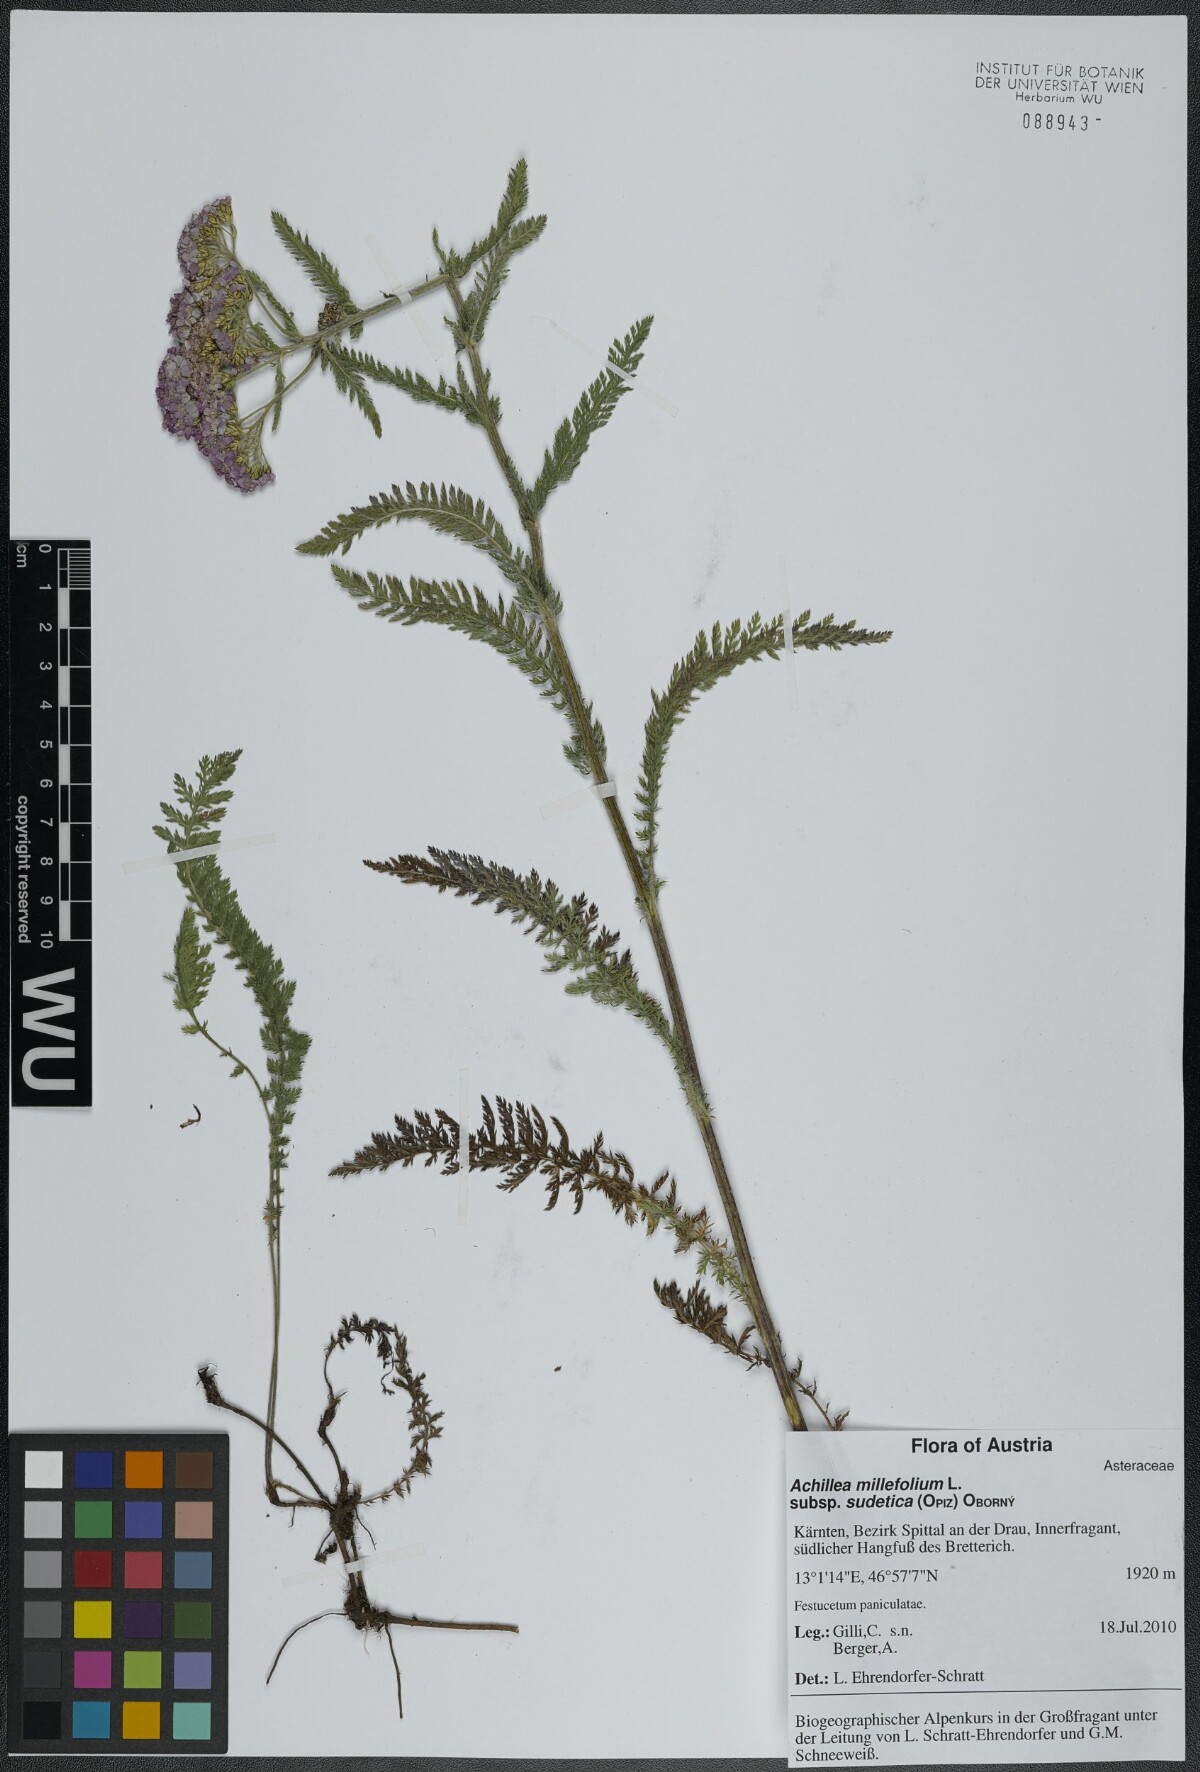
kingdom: Plantae
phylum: Tracheophyta
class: Magnoliopsida
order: Asterales
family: Asteraceae
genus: Achillea
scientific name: Achillea millefolium
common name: Yarrow
